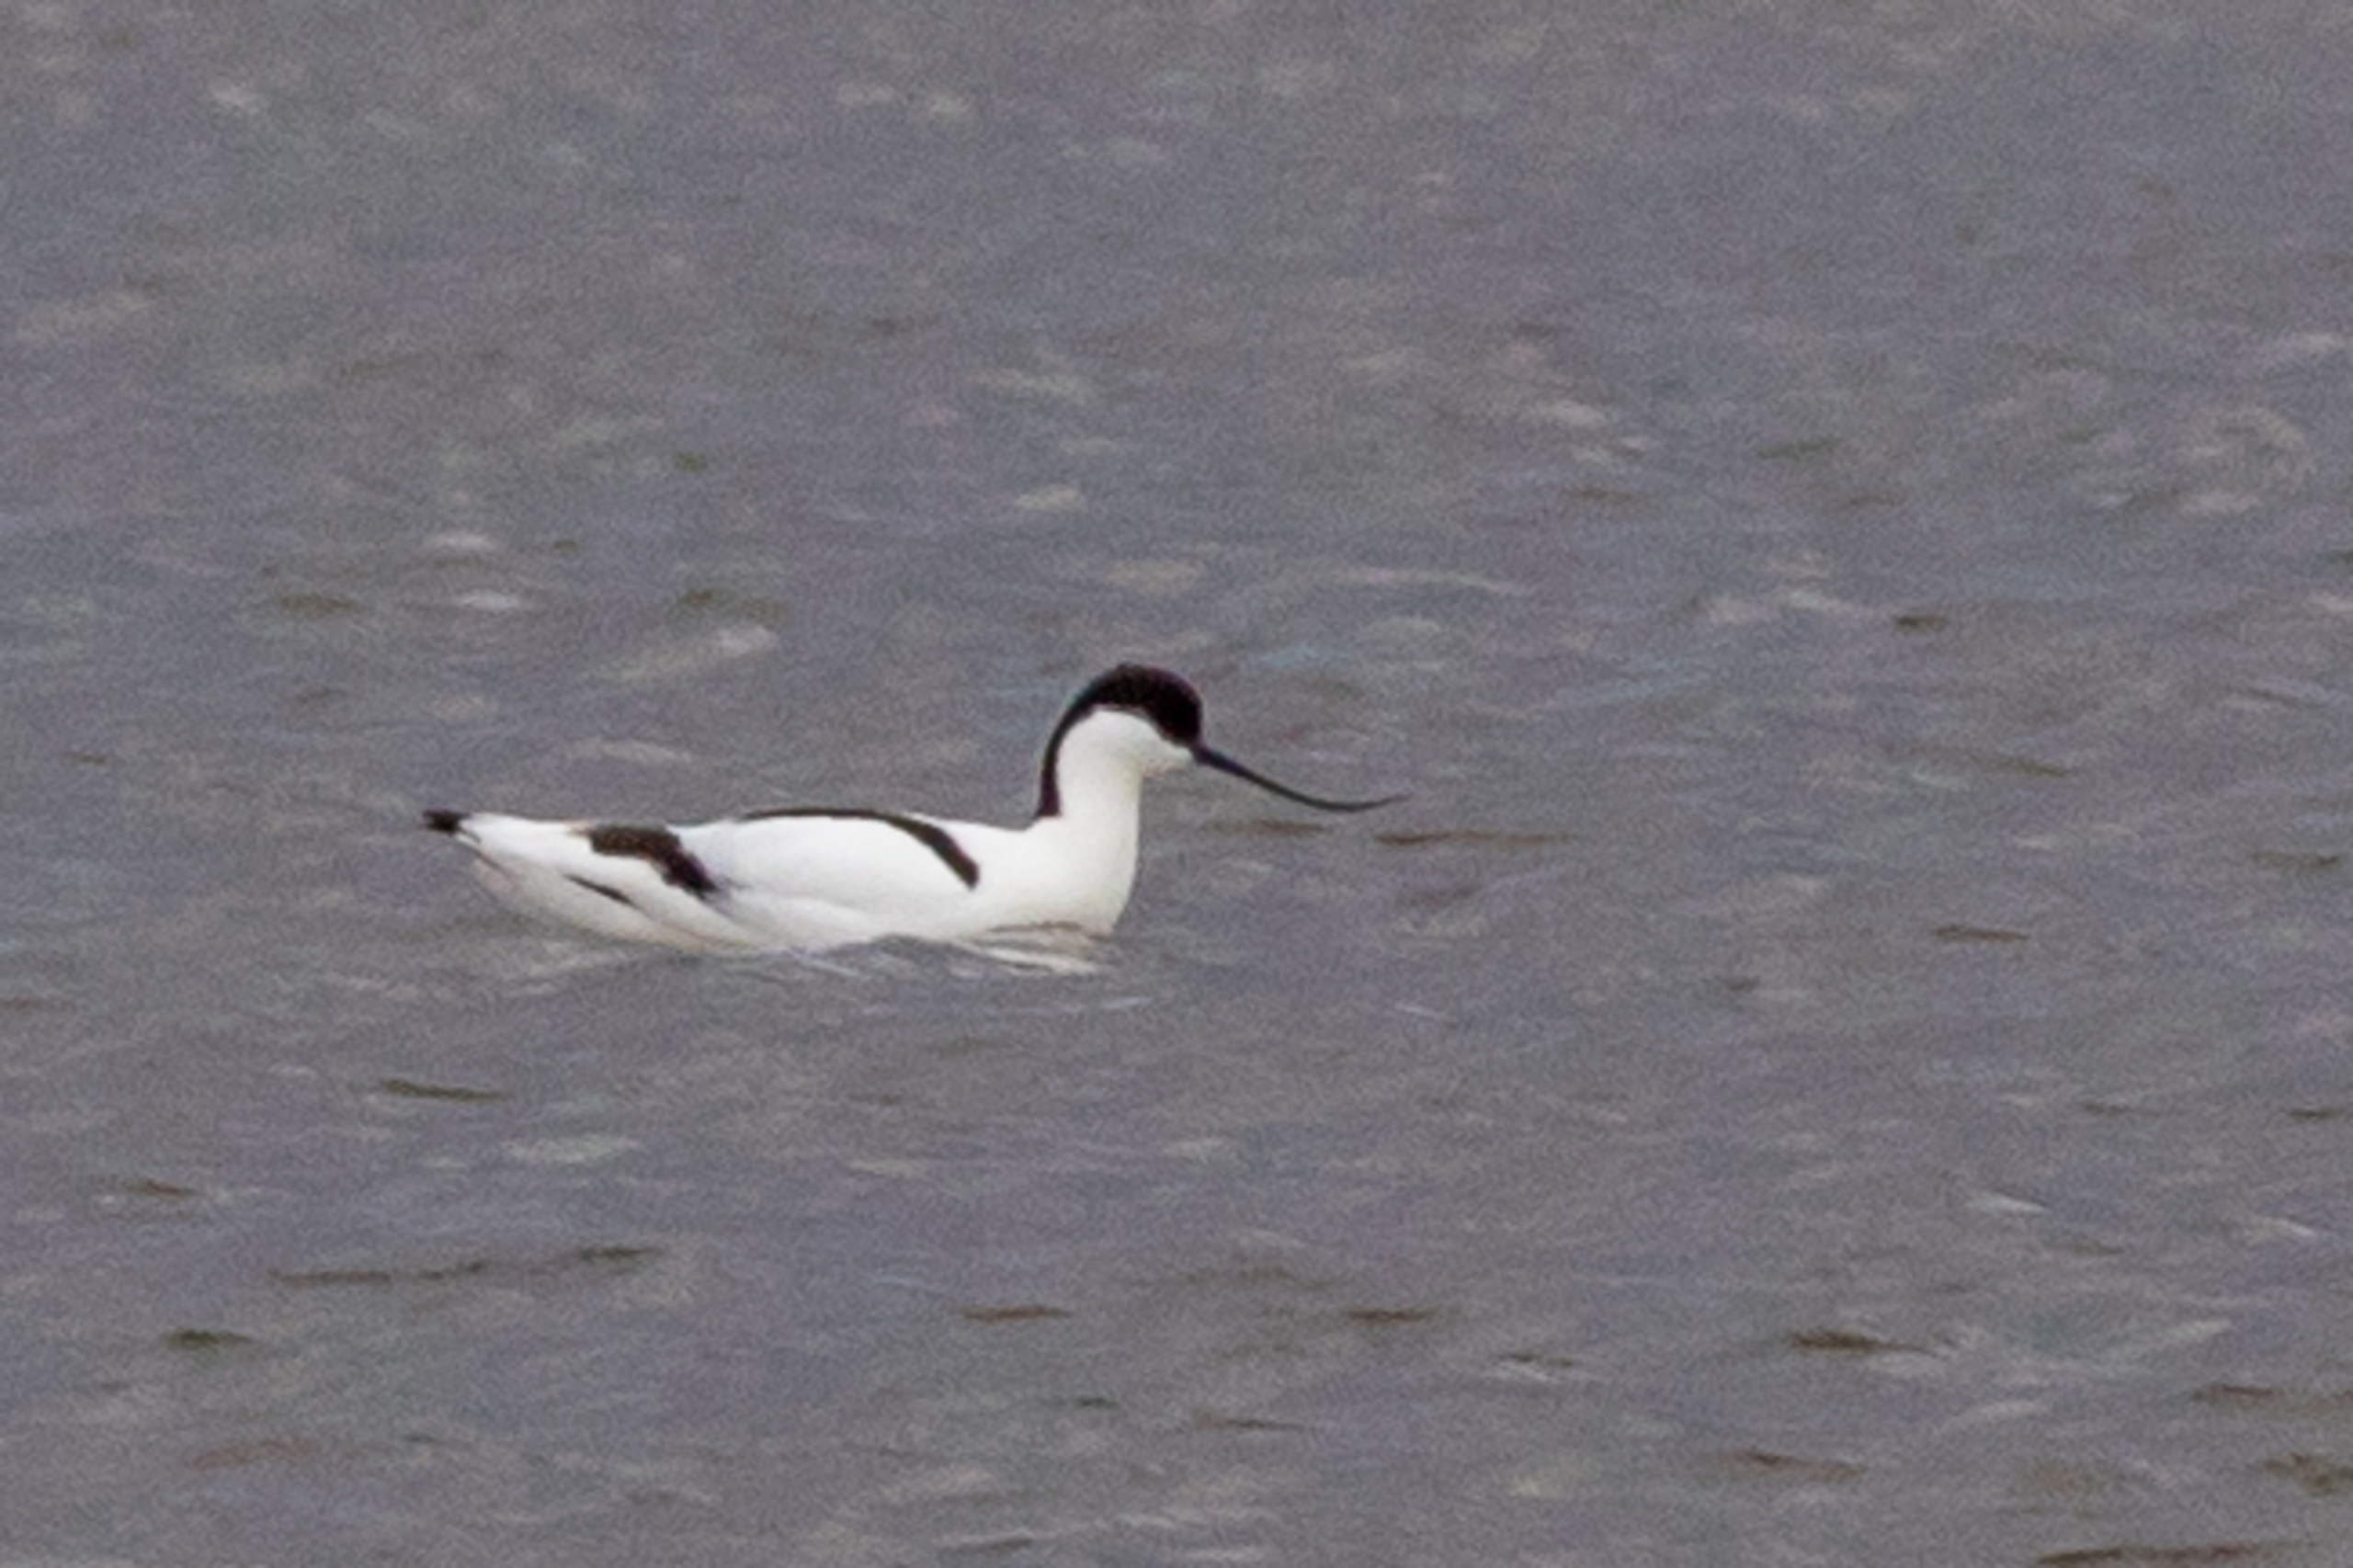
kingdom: Animalia
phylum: Chordata
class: Aves
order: Charadriiformes
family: Recurvirostridae
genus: Recurvirostra
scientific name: Recurvirostra avosetta
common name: Klyde
